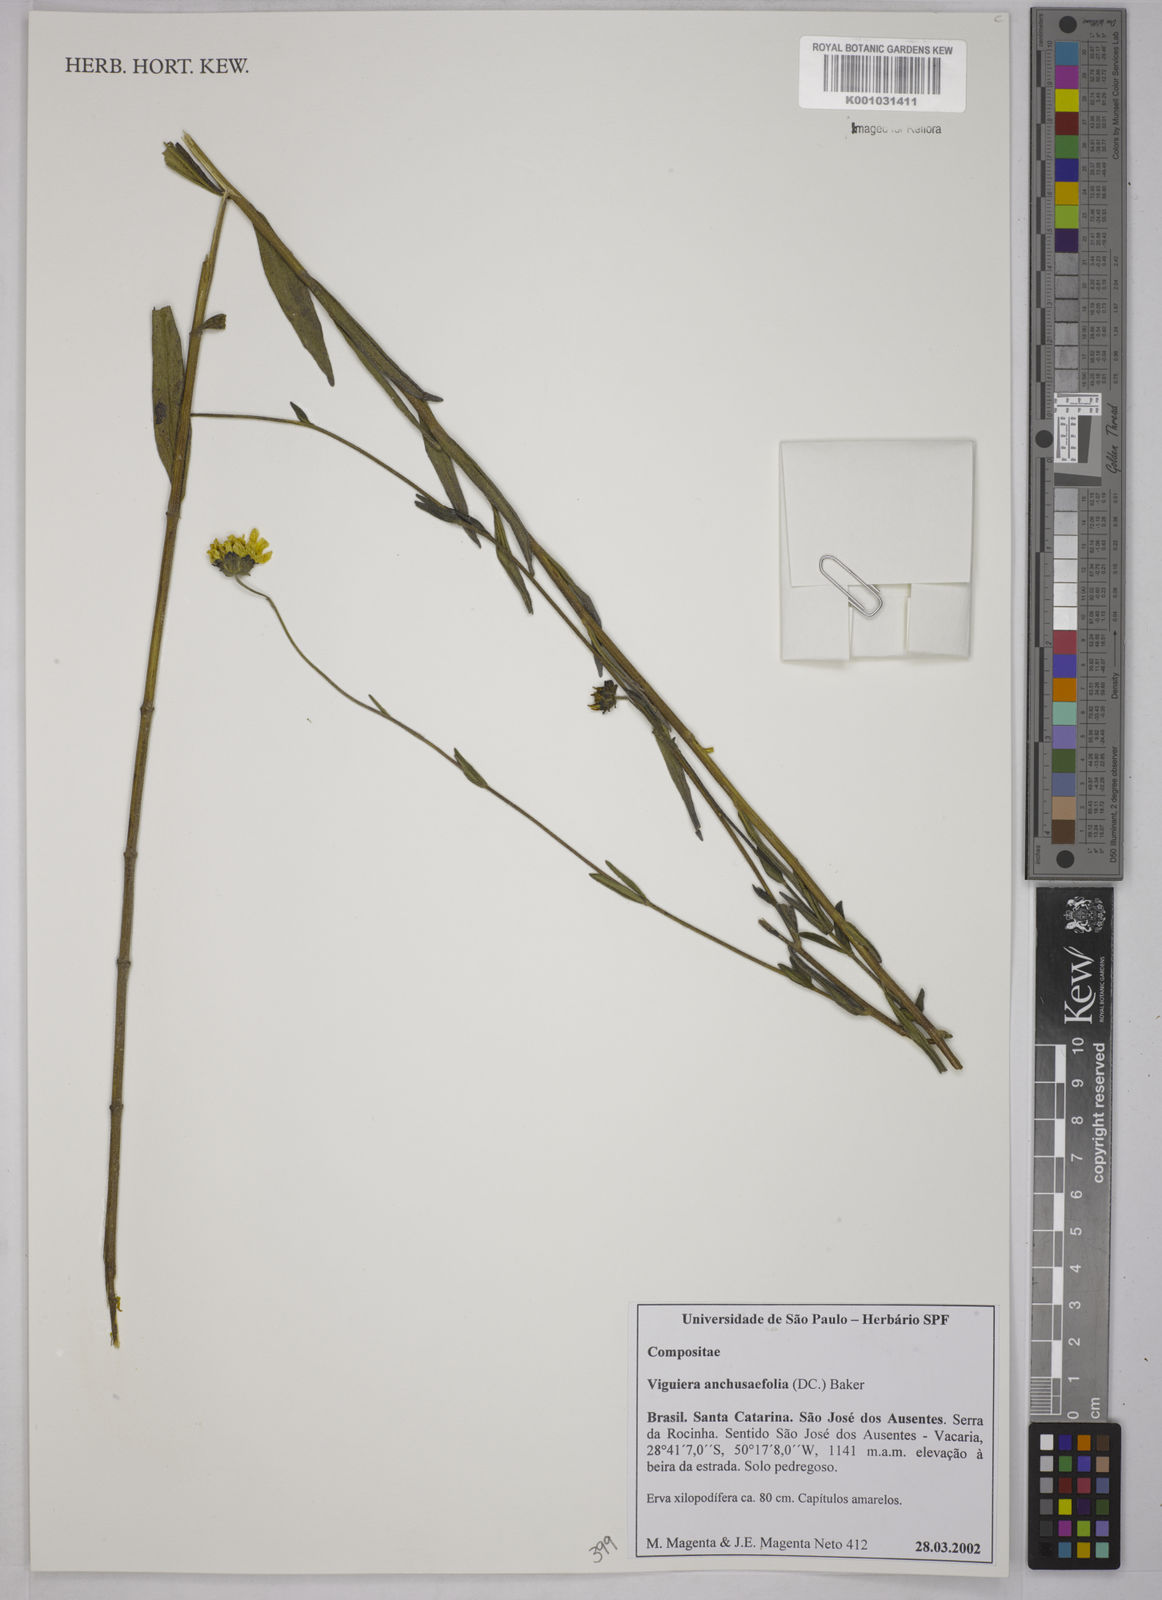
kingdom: Plantae
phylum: Tracheophyta
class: Magnoliopsida
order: Asterales
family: Asteraceae
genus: Viguiera
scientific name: Viguiera
